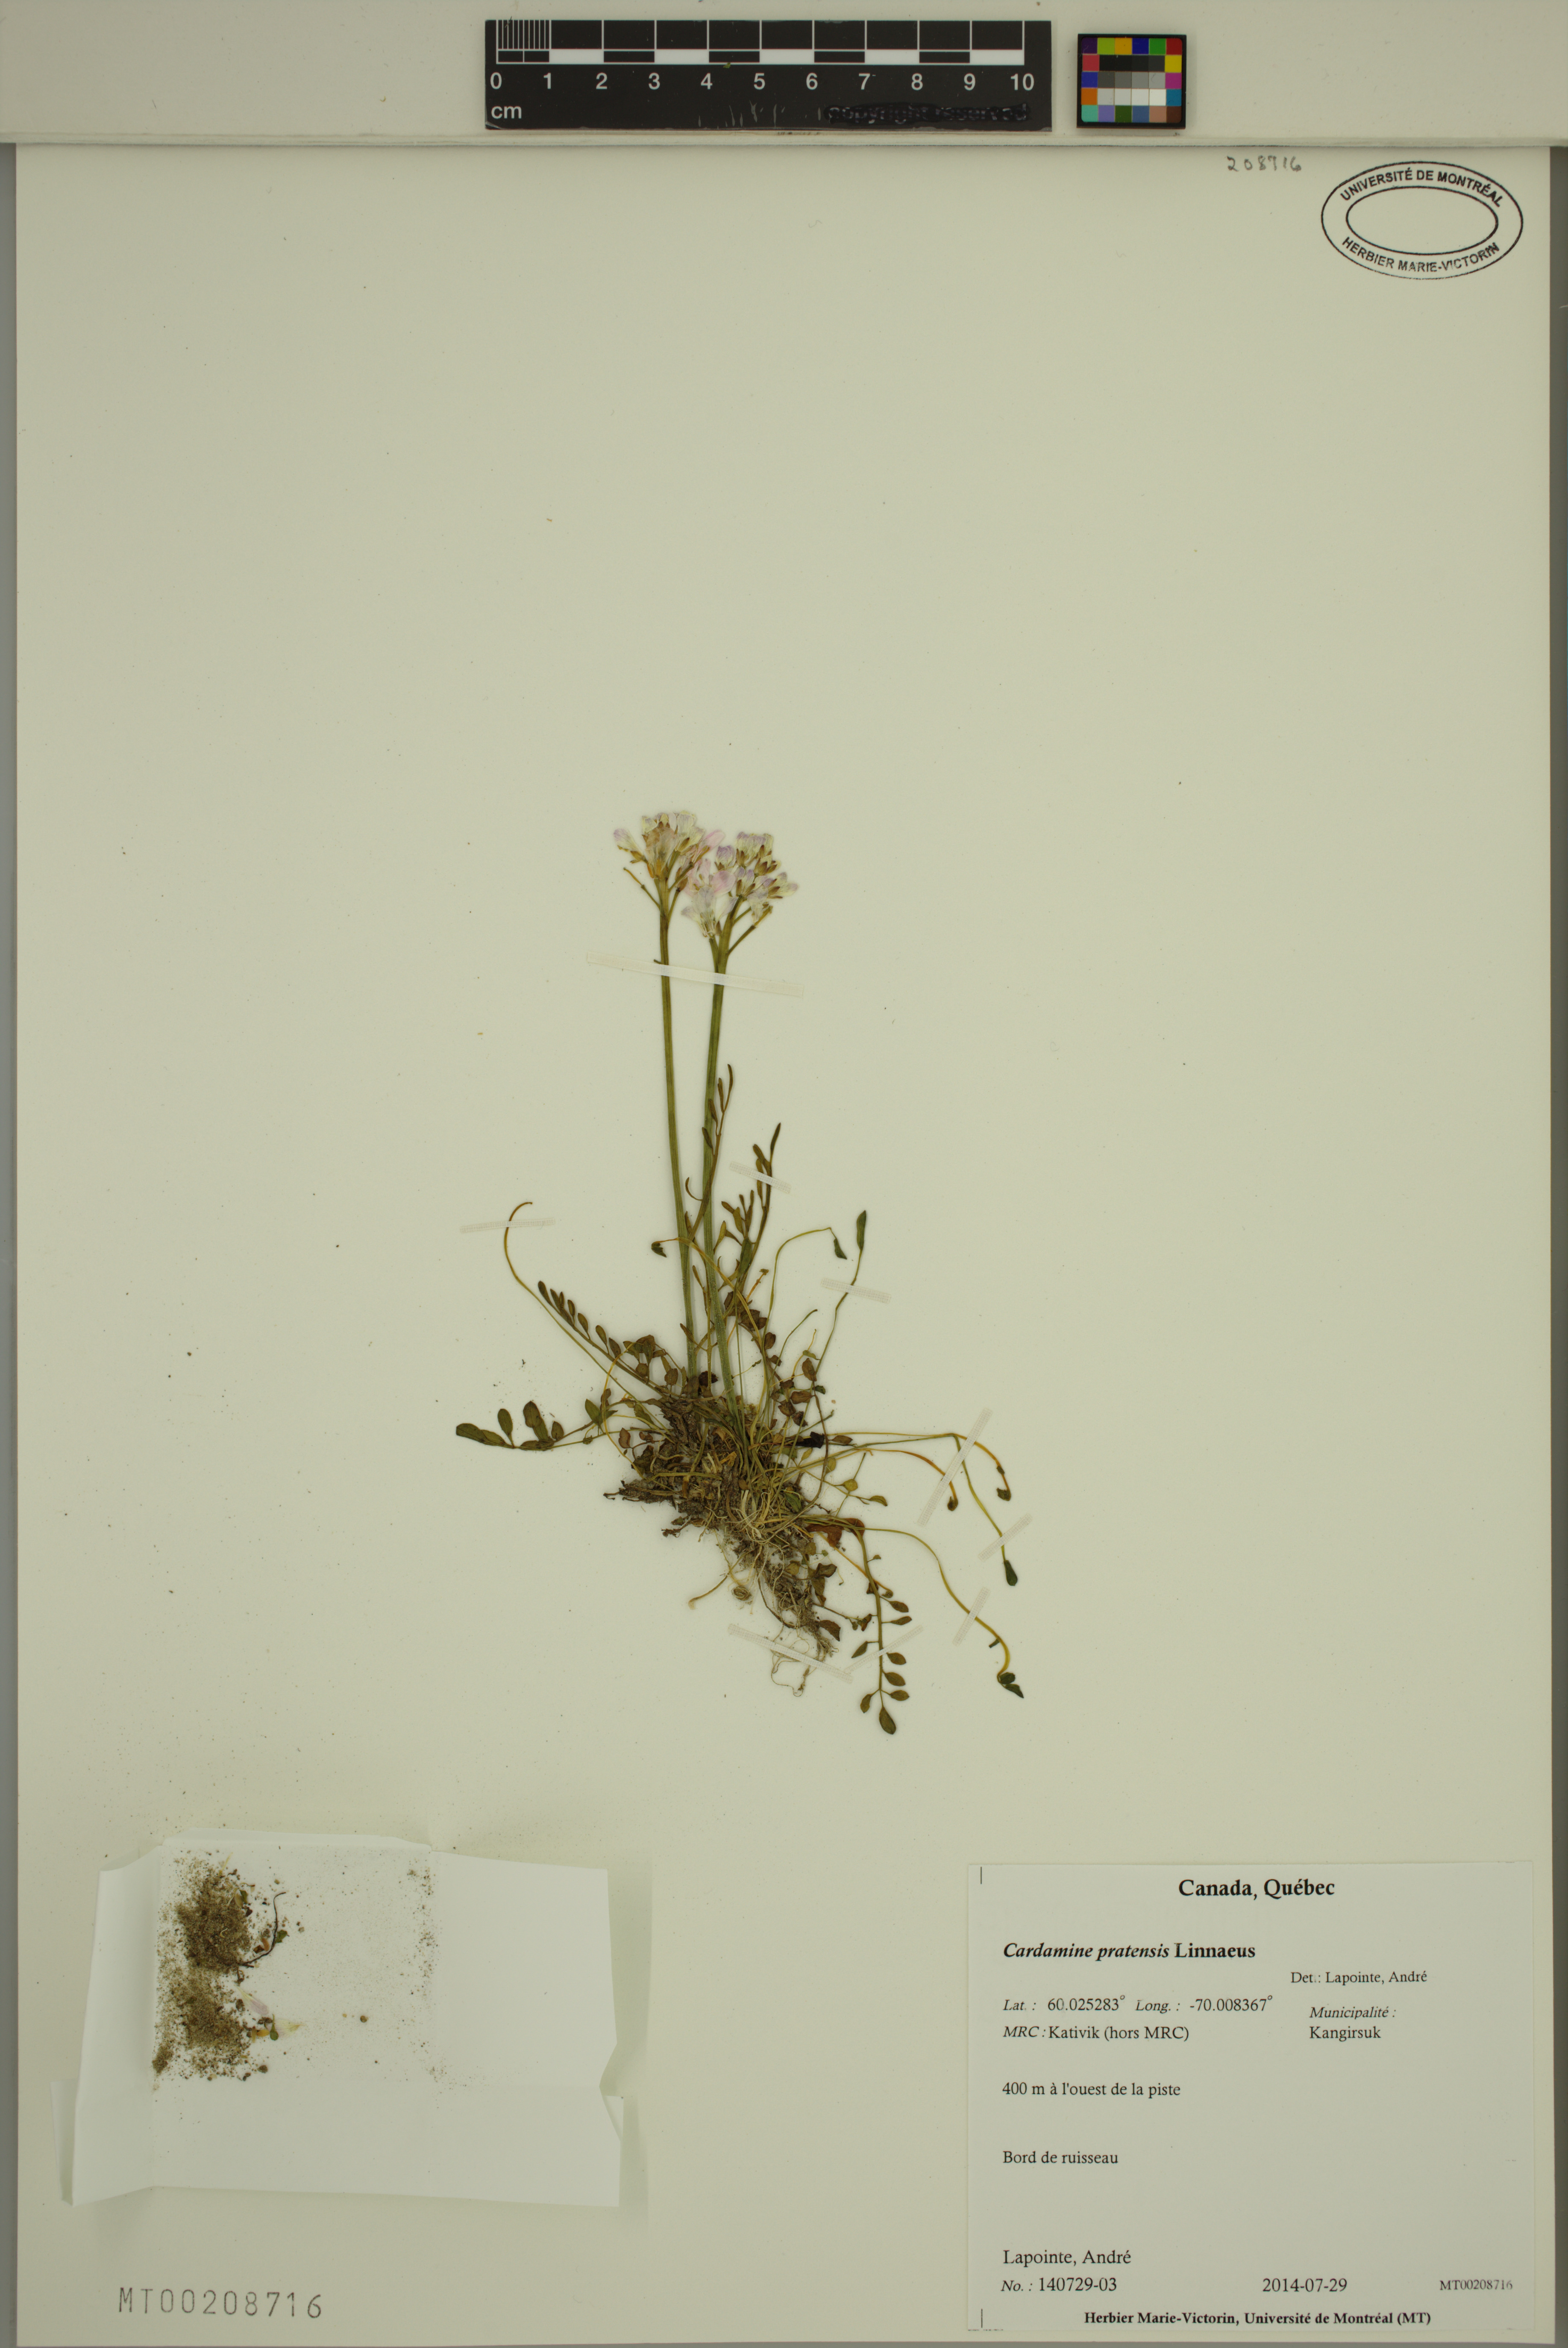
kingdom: Plantae
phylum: Tracheophyta
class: Magnoliopsida
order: Brassicales
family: Brassicaceae
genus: Cardamine
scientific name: Cardamine pratensis
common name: Cuckoo flower
